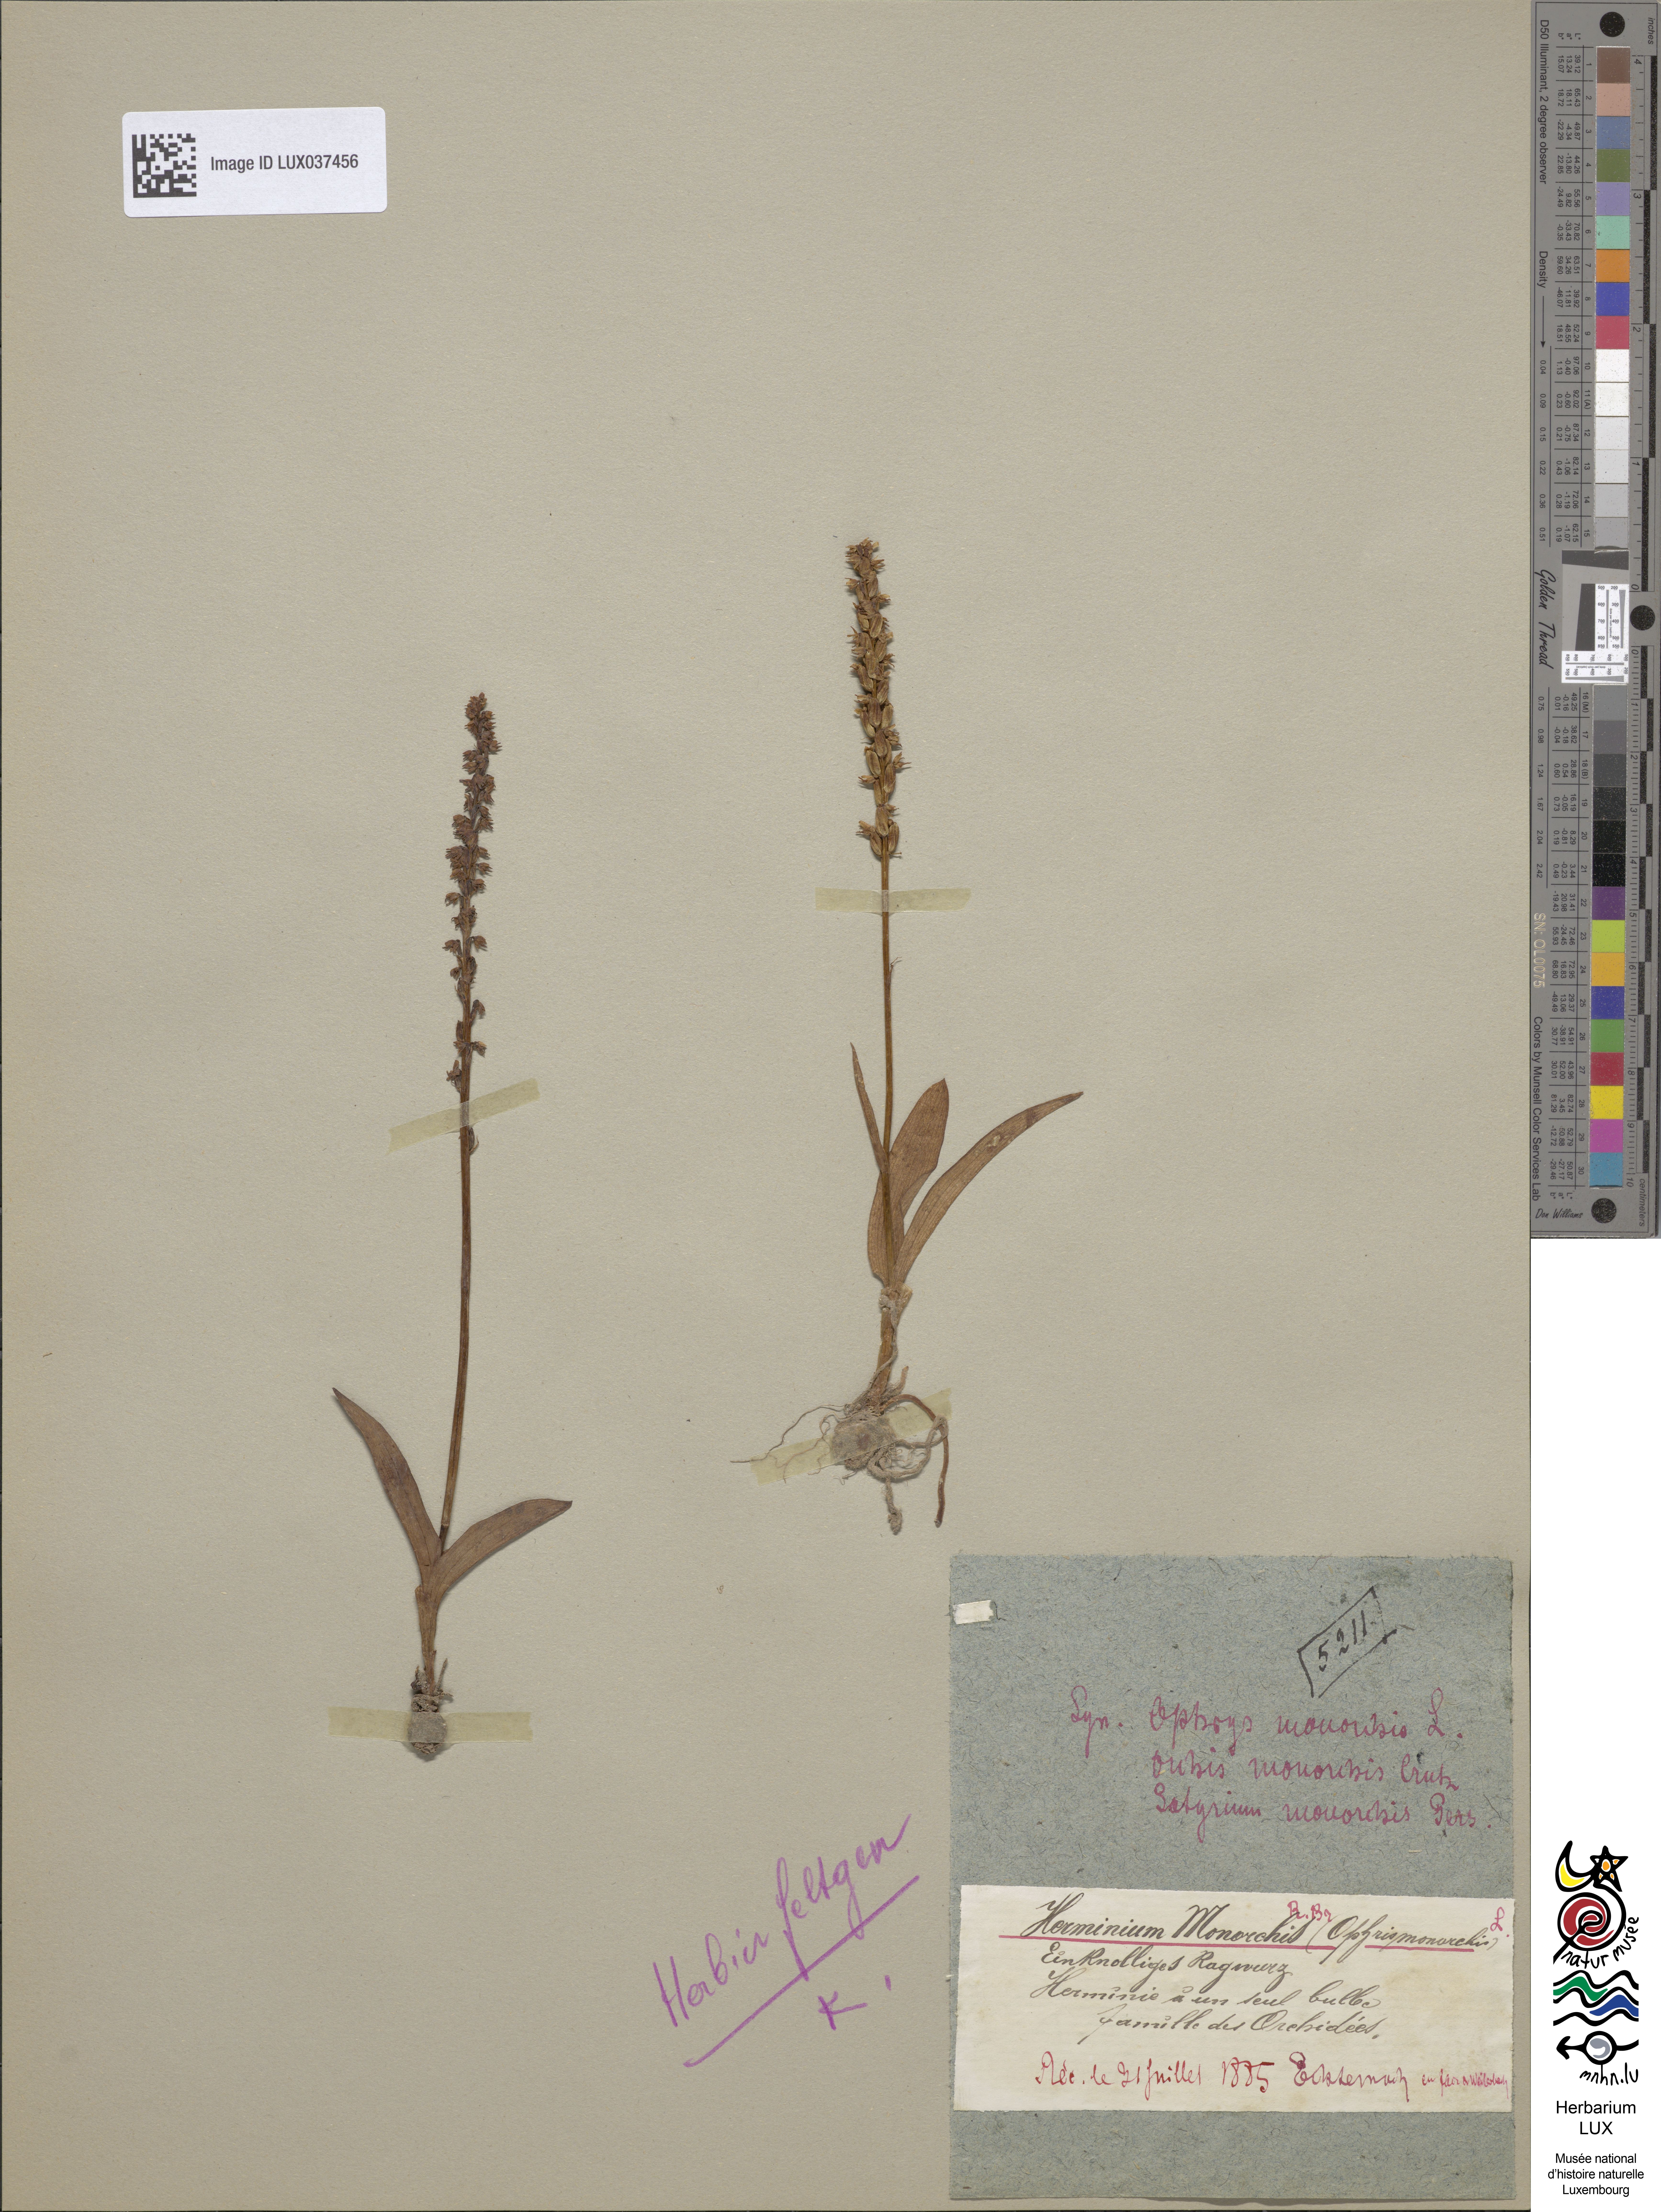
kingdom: Plantae
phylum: Tracheophyta
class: Liliopsida
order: Asparagales
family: Orchidaceae
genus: Herminium
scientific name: Herminium monorchis
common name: Musk orchid
